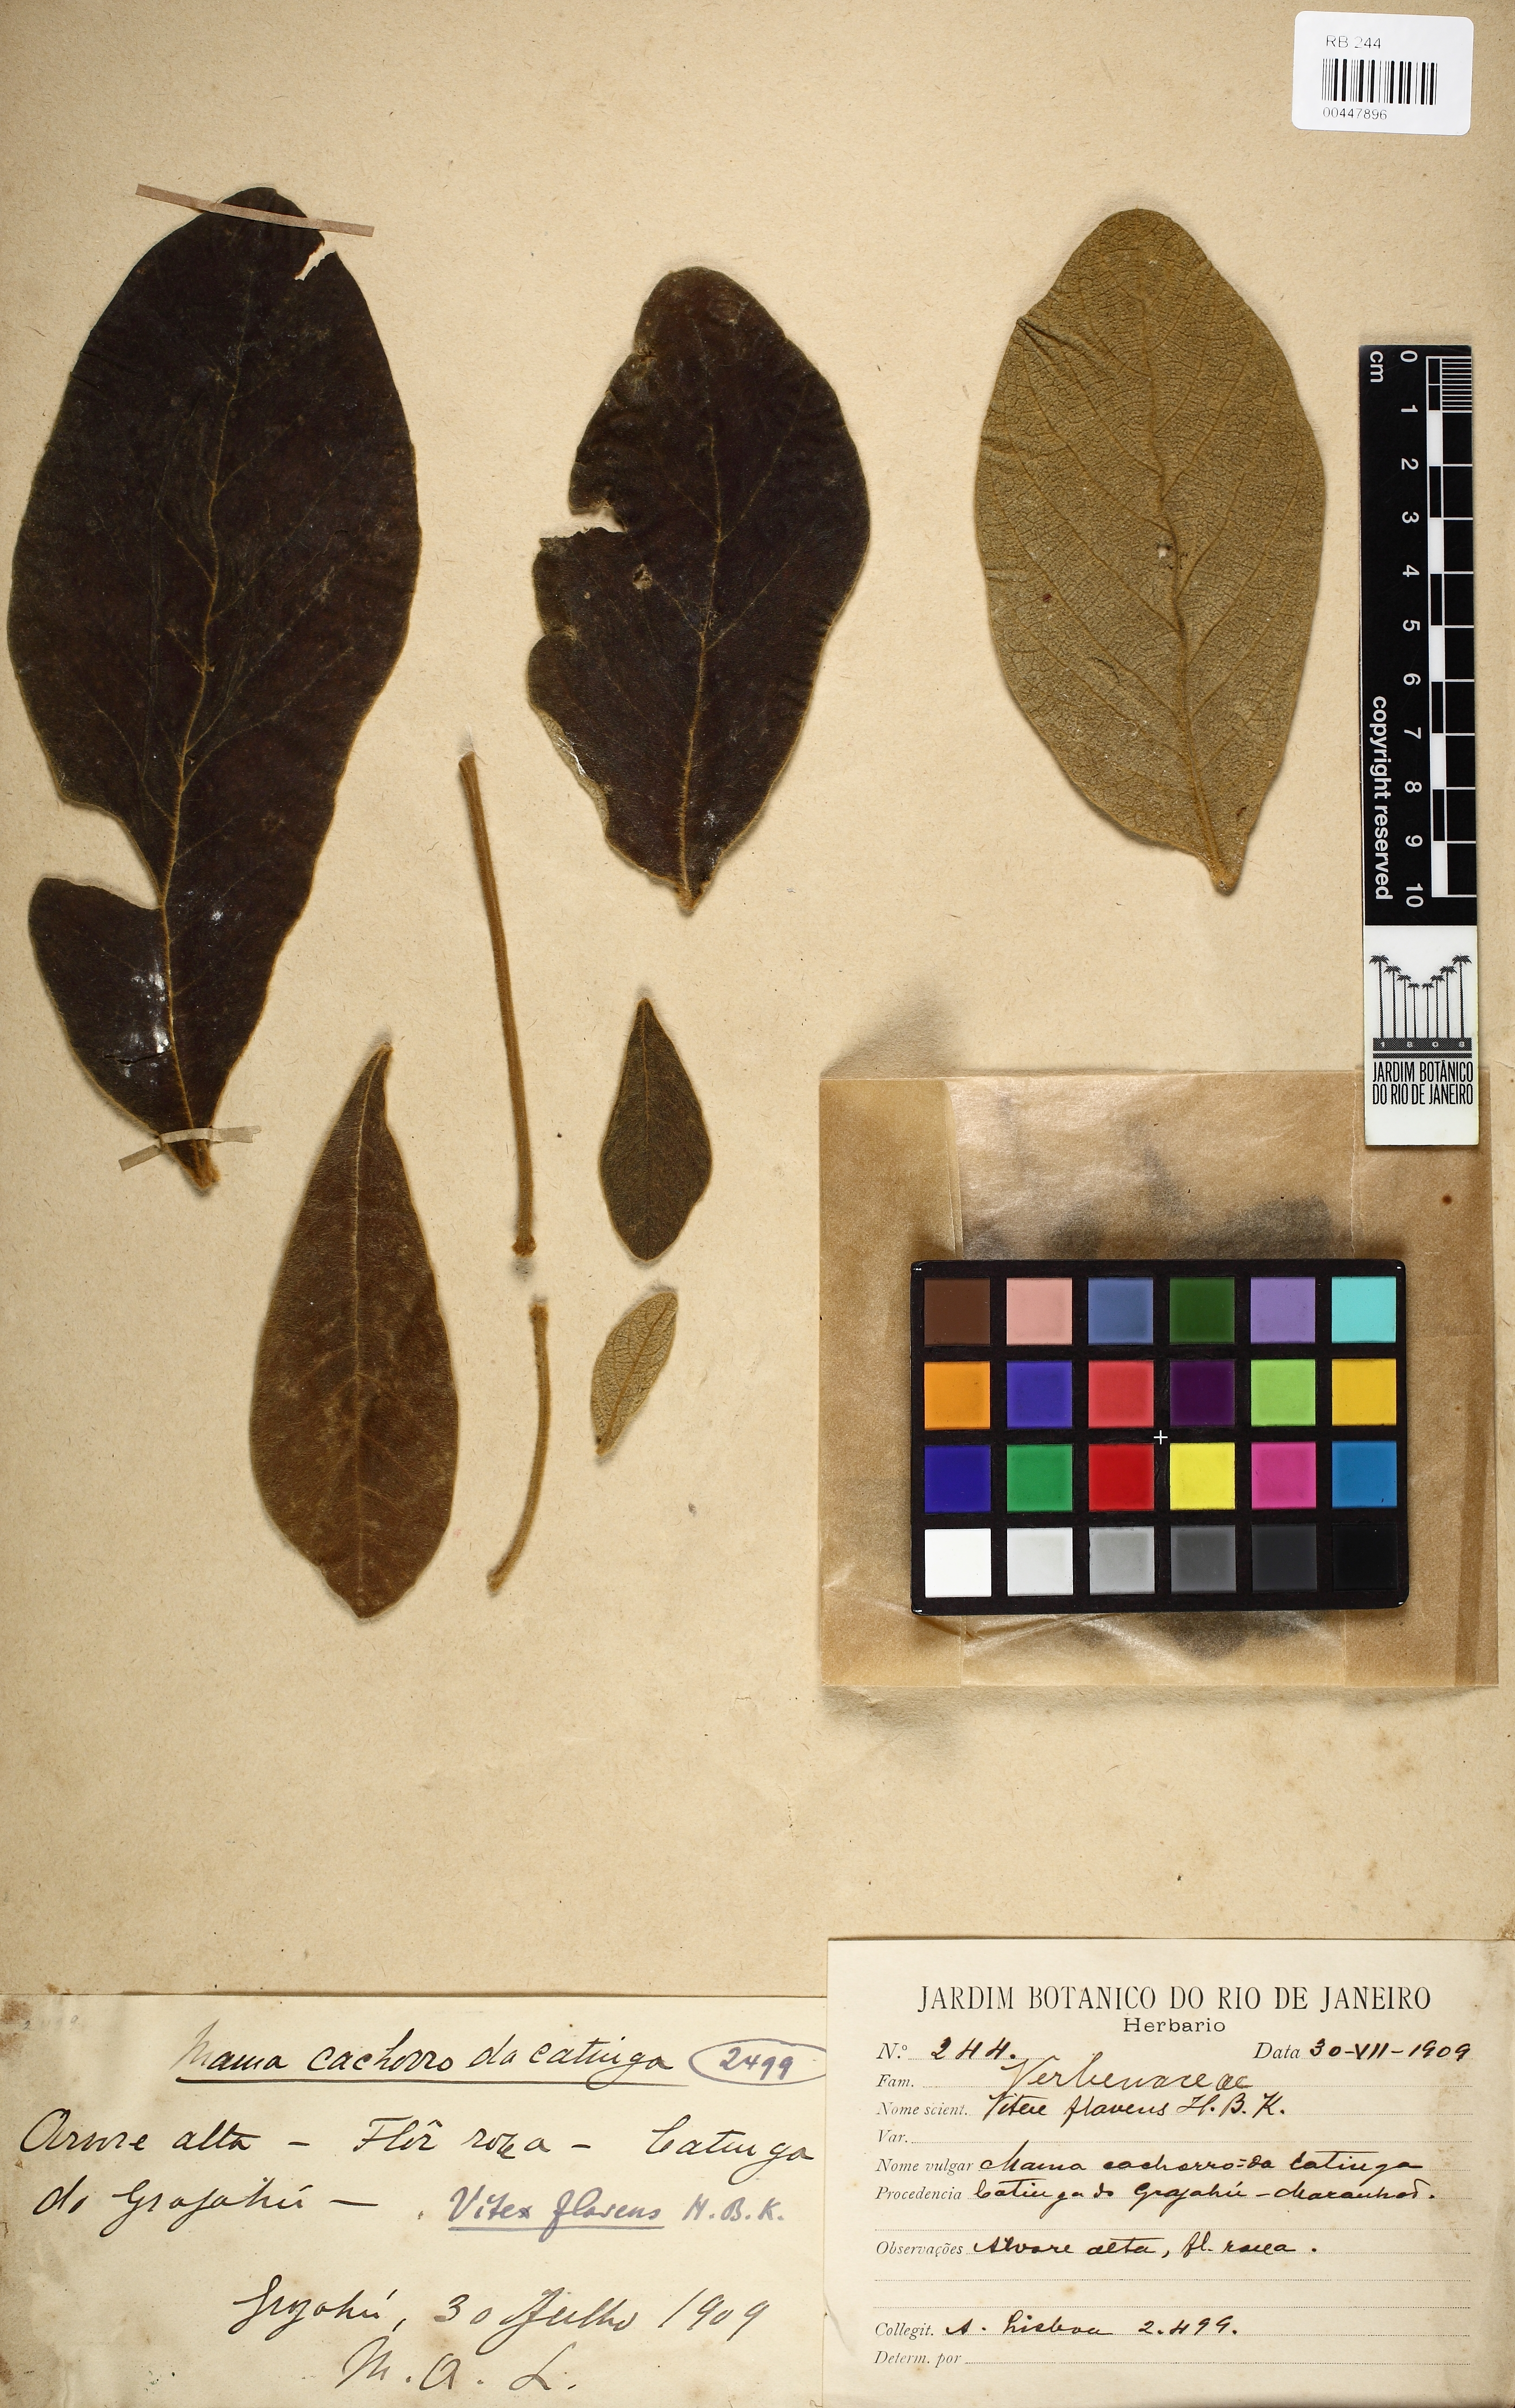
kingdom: Plantae
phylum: Tracheophyta
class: Magnoliopsida
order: Lamiales
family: Lamiaceae
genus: Vitex
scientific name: Vitex flavens
